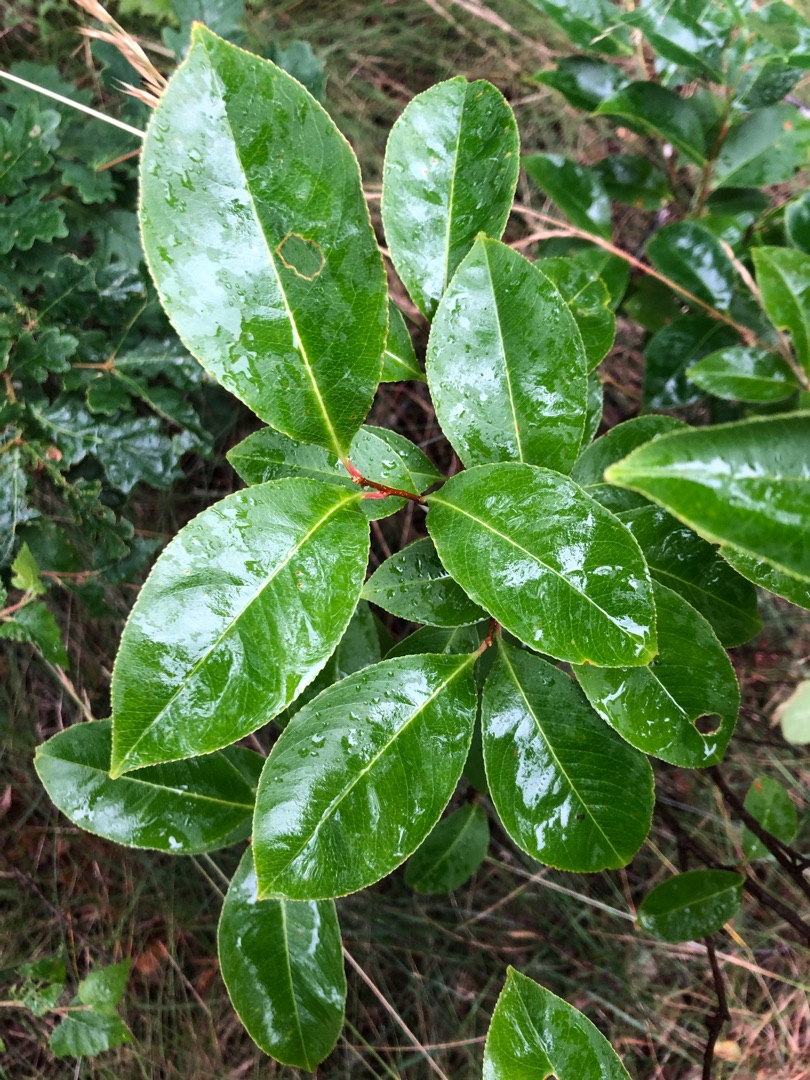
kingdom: Plantae
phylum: Tracheophyta
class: Magnoliopsida
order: Rosales
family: Rosaceae
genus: Prunus
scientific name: Prunus serotina
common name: Glansbladet hæg
